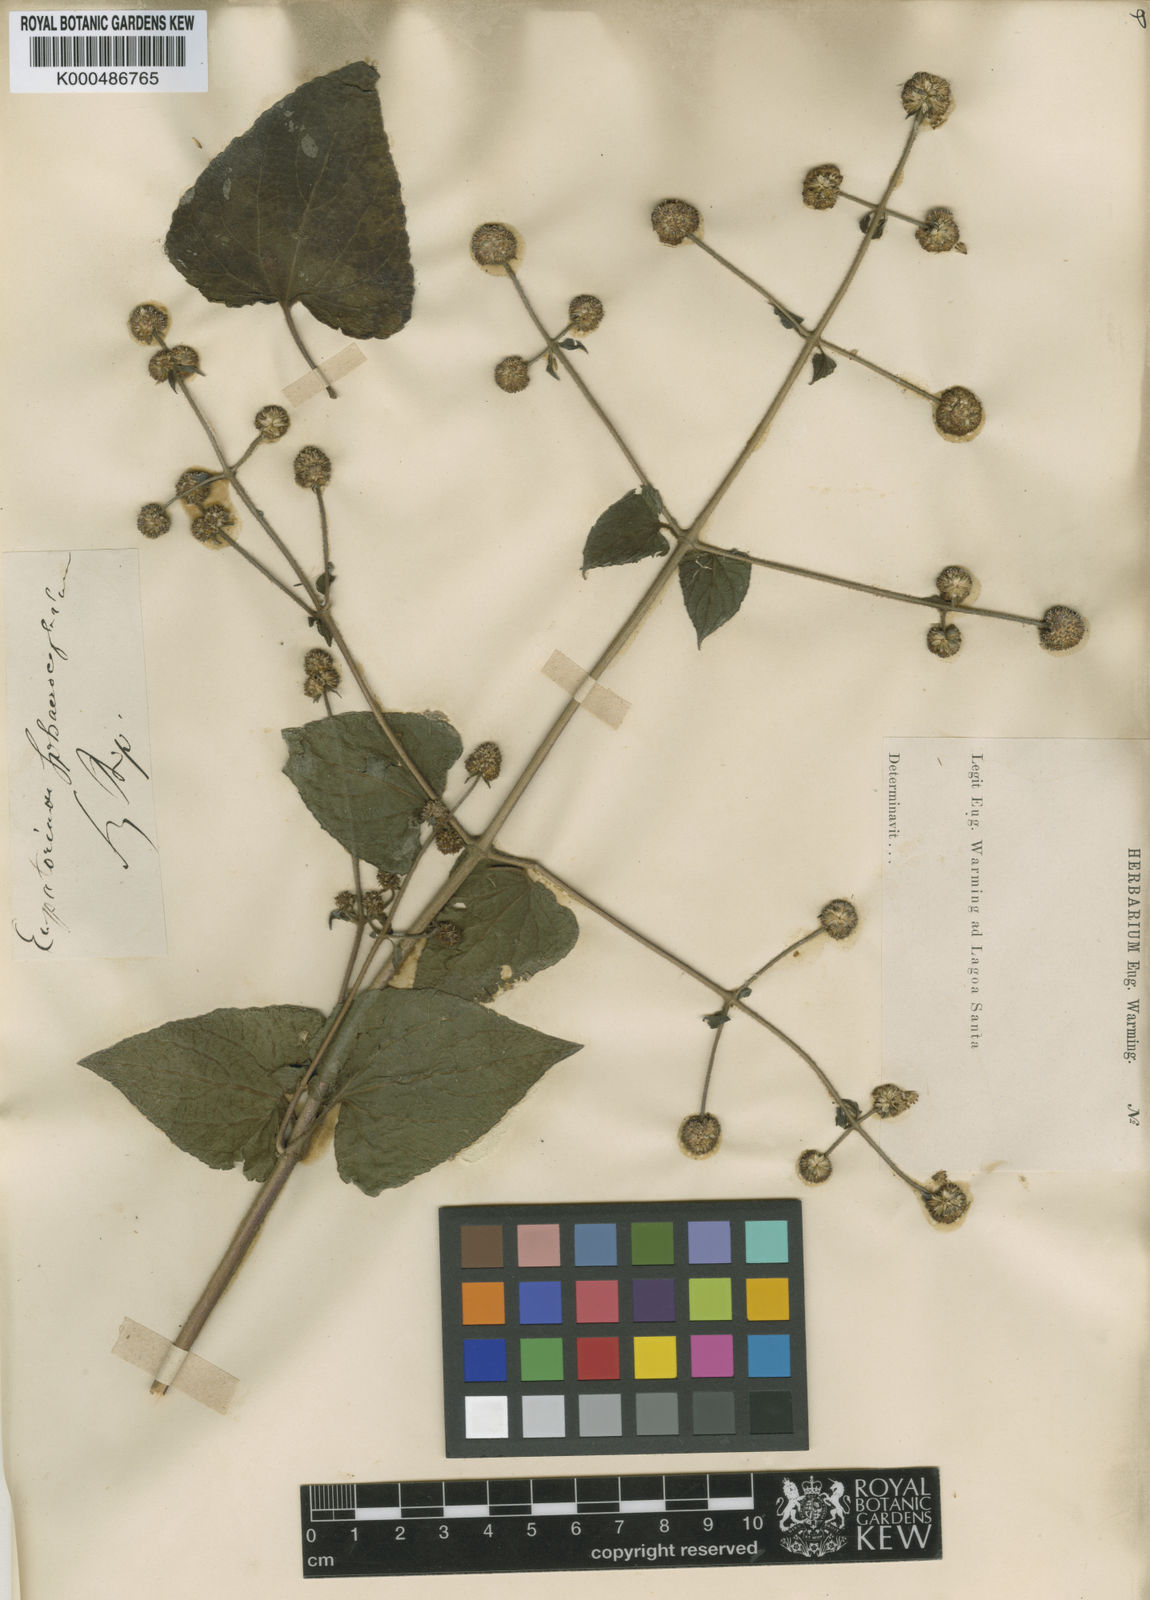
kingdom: Plantae
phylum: Tracheophyta
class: Magnoliopsida
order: Asterales
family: Asteraceae
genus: Sphaereupatorium
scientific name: Sphaereupatorium scandens
